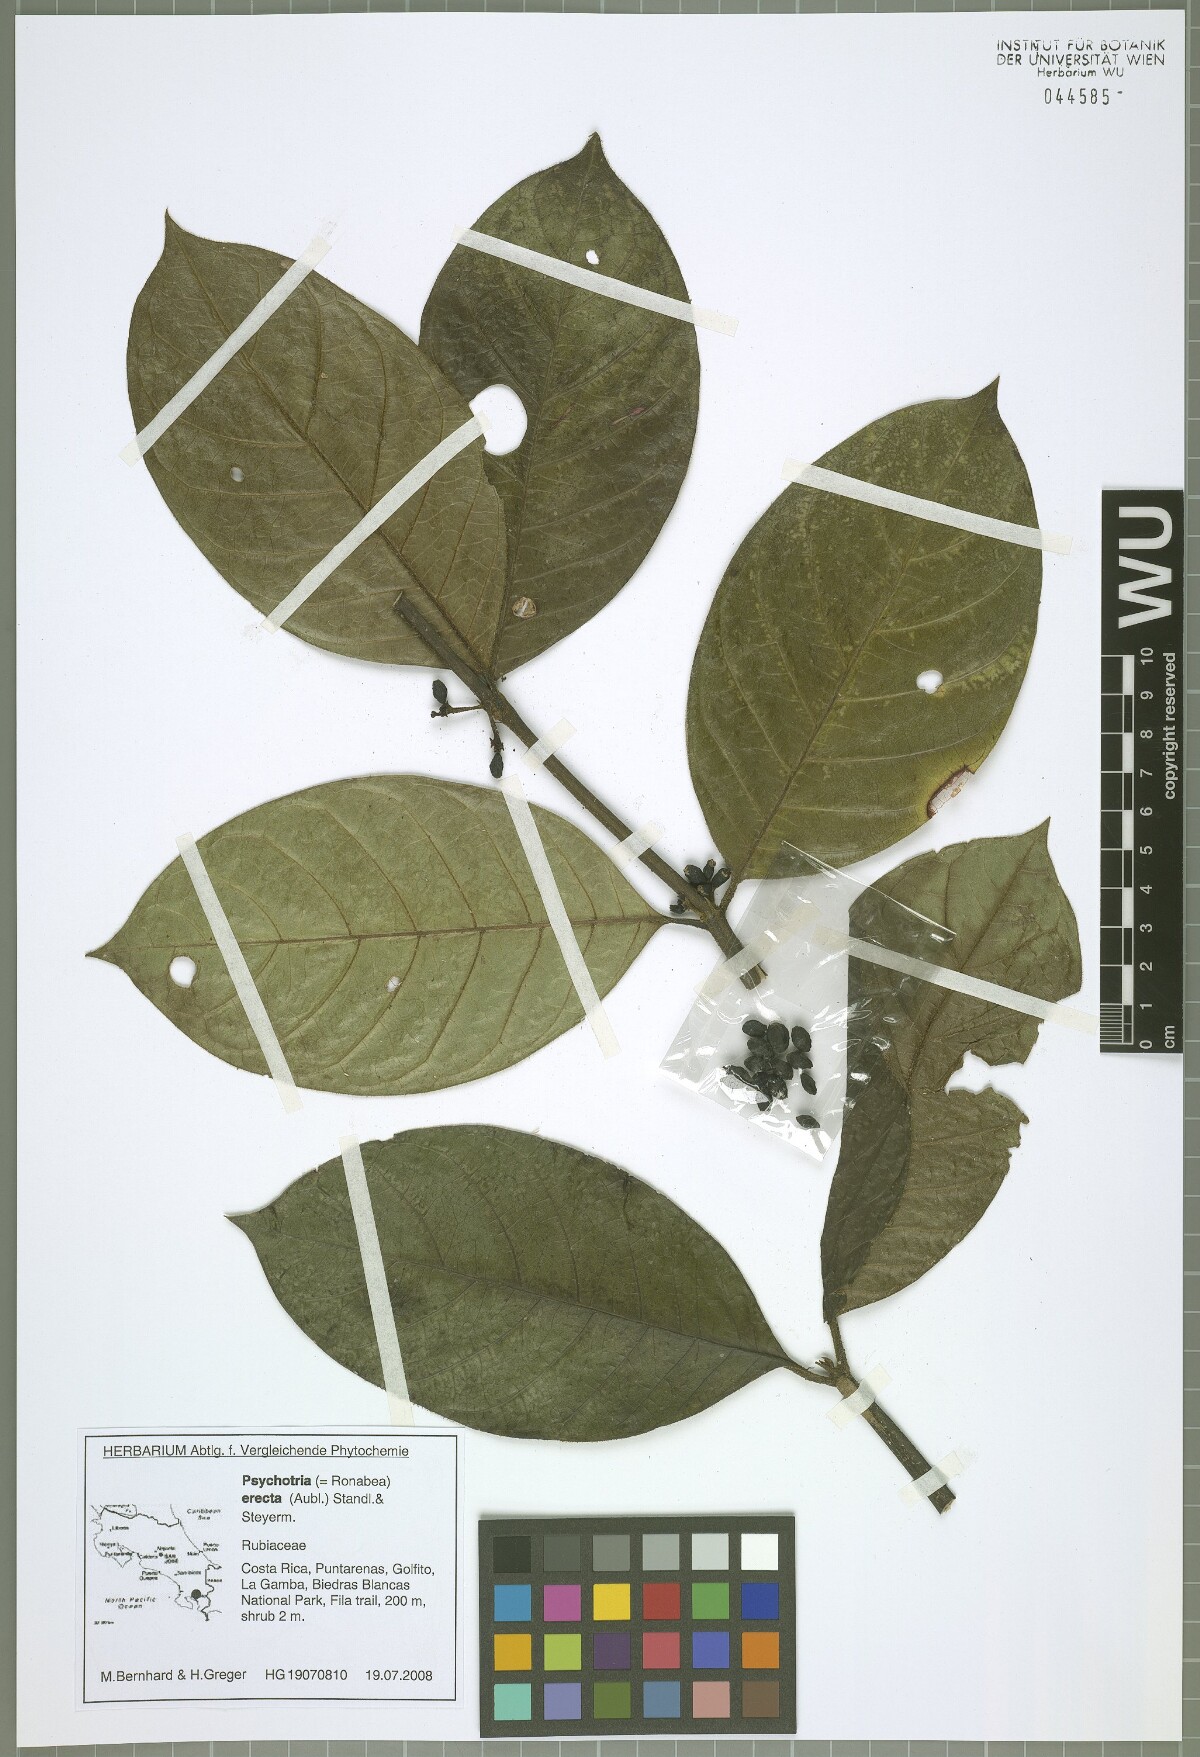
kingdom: Plantae
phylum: Tracheophyta
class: Magnoliopsida
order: Gentianales
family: Rubiaceae
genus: Ronabea
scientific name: Ronabea latifolia
